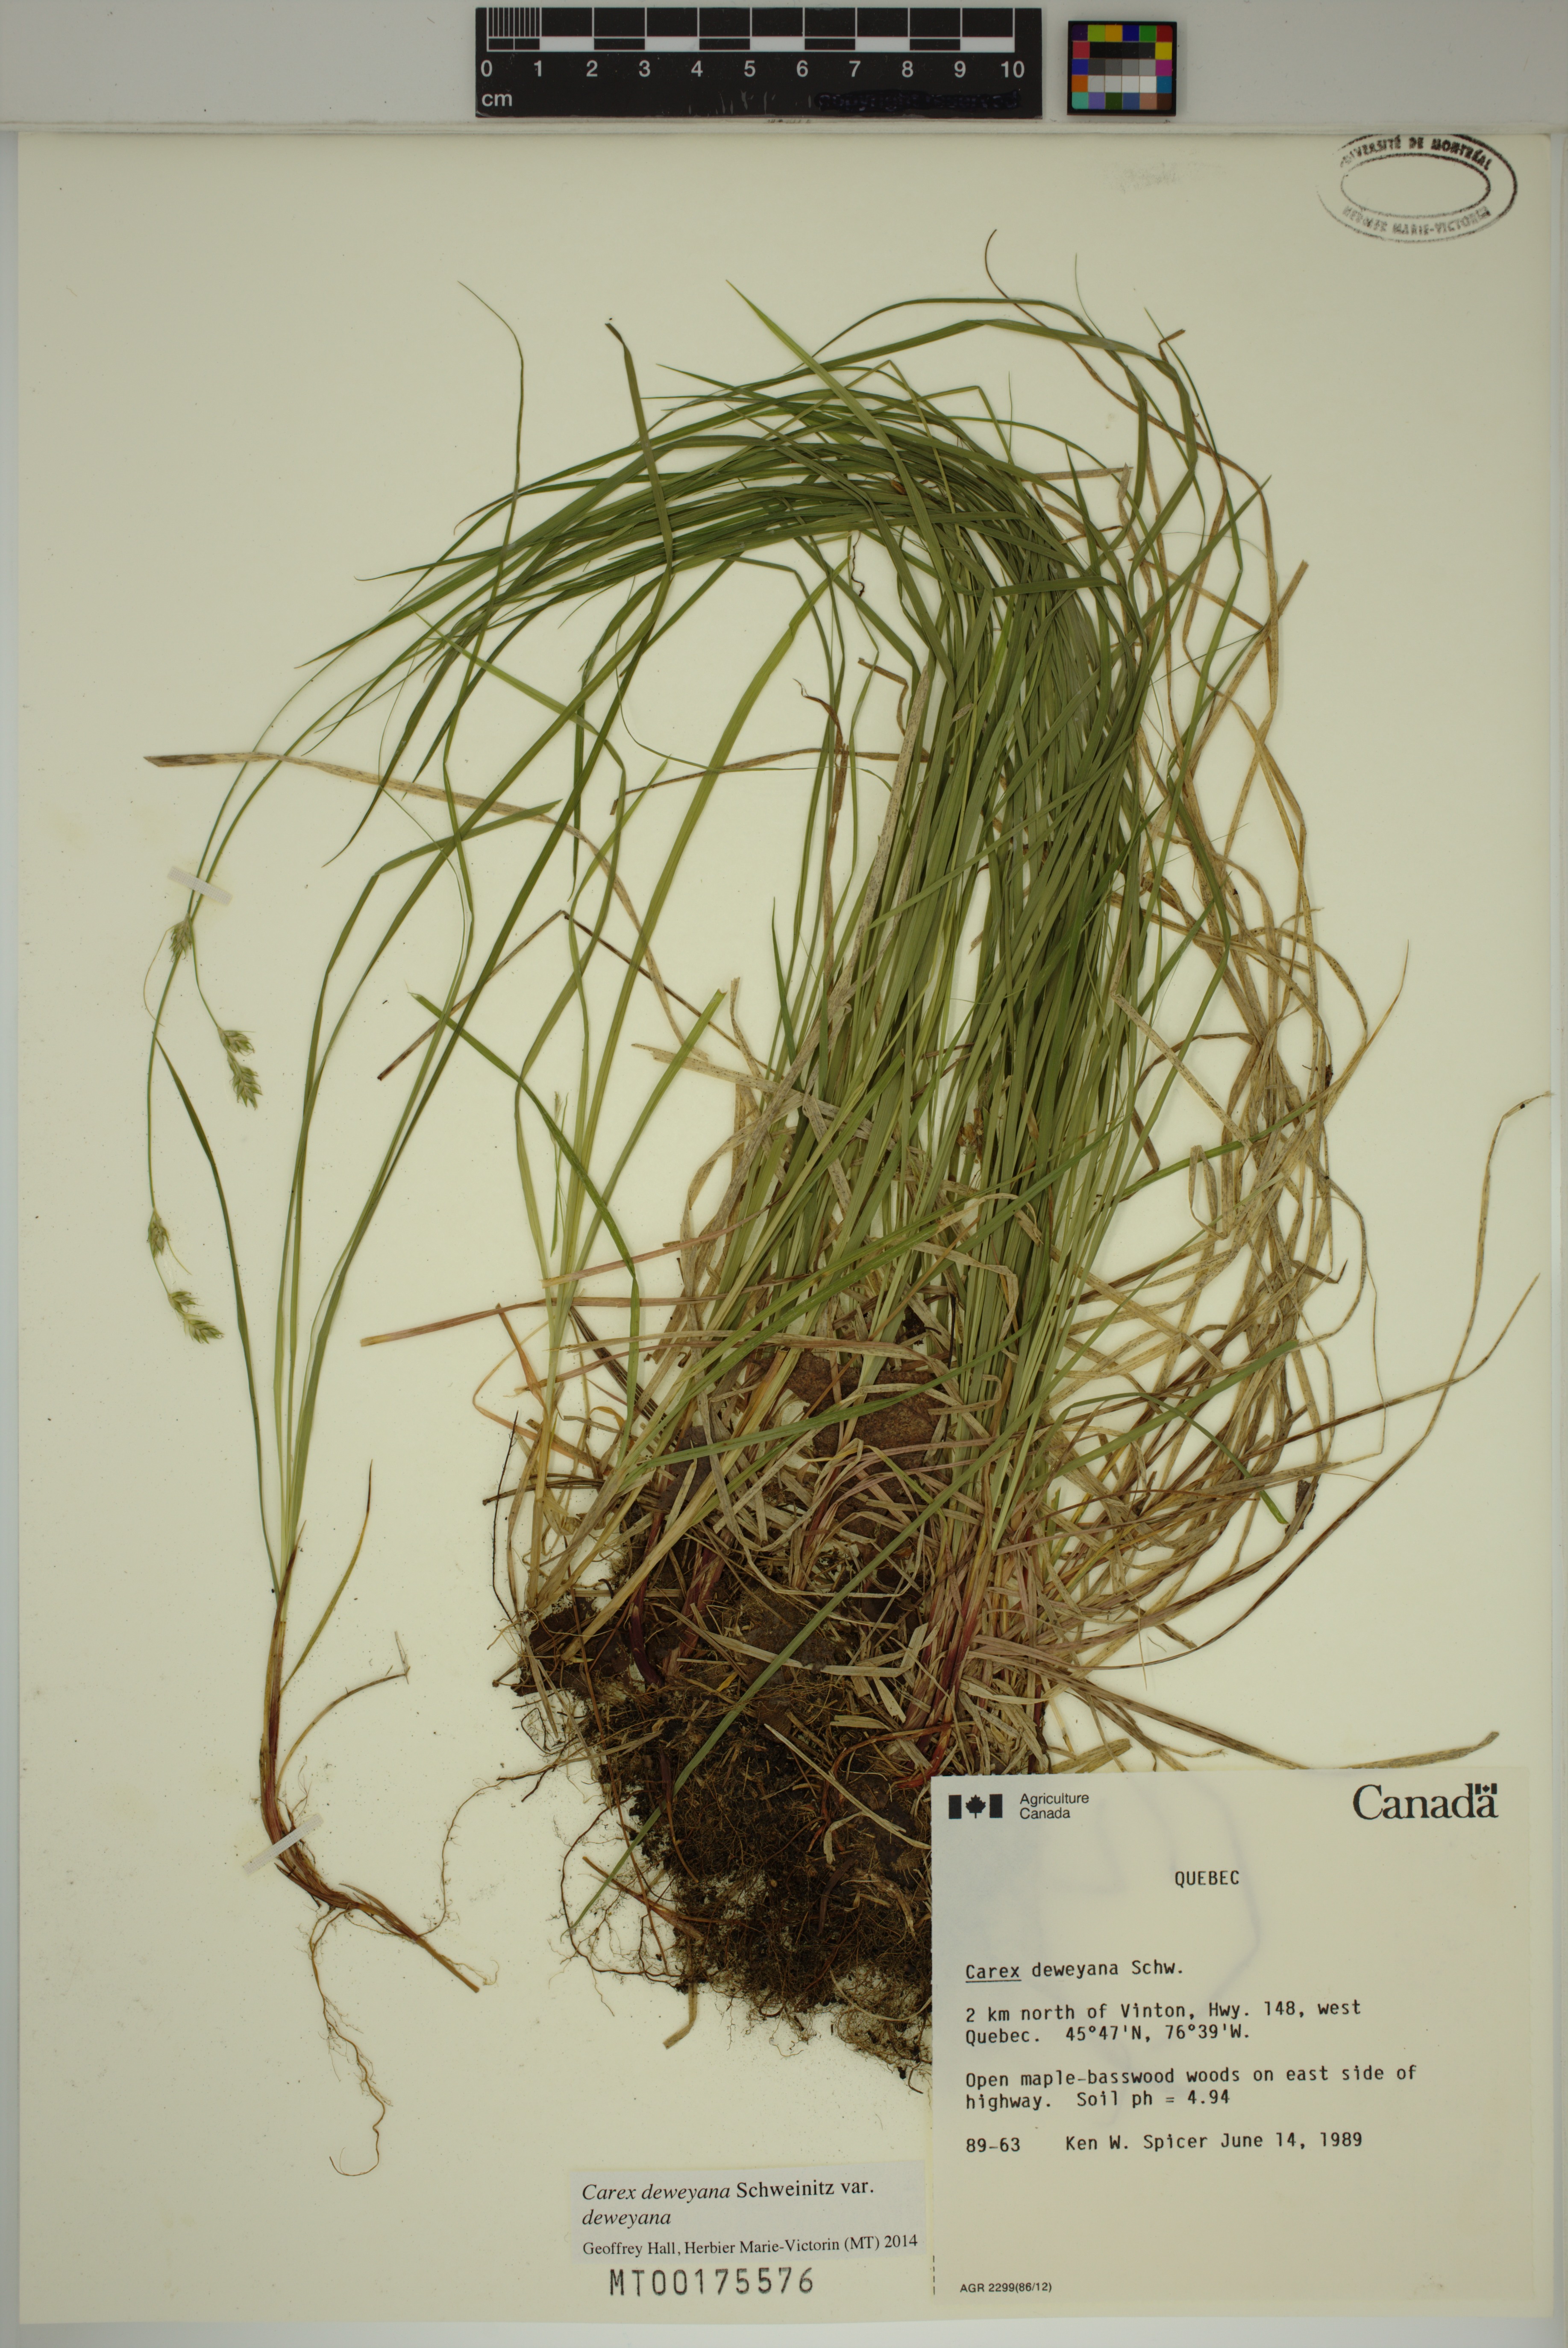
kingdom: Plantae
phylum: Tracheophyta
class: Liliopsida
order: Poales
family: Cyperaceae
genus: Carex
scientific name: Carex deweyana
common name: Dewey's sedge
